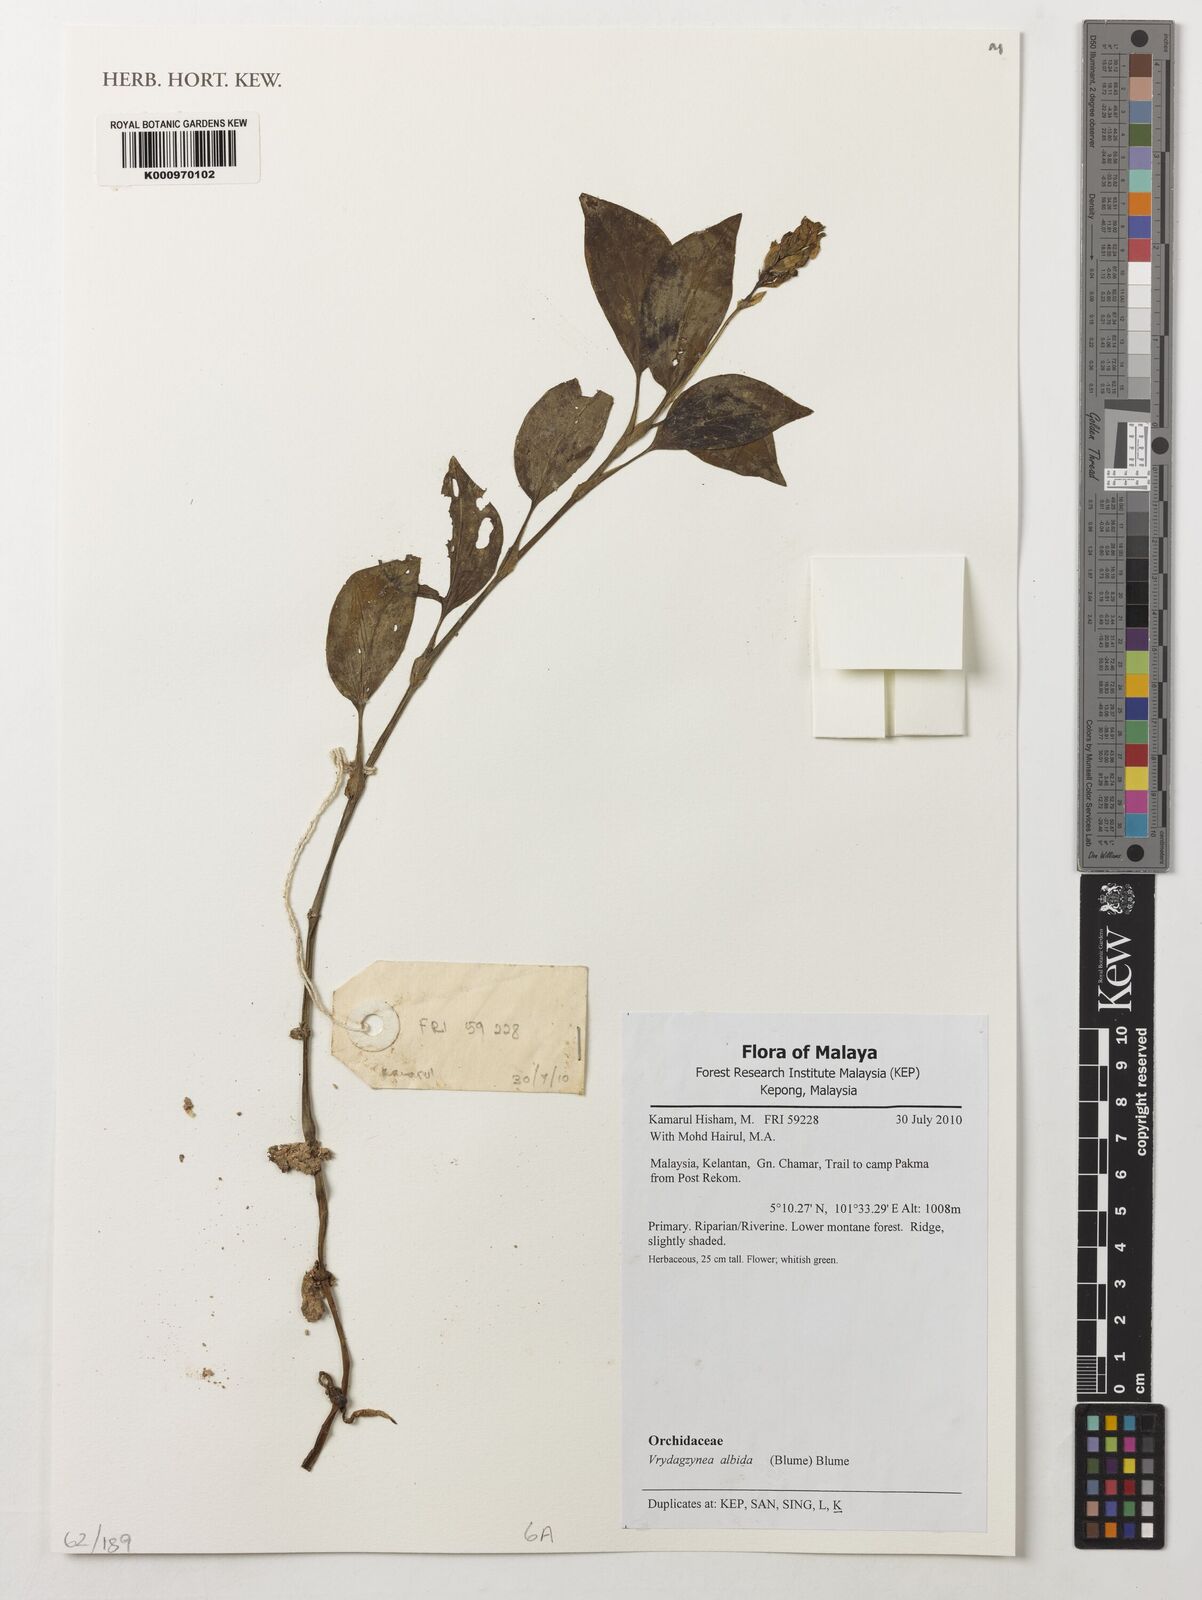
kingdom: Plantae
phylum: Tracheophyta
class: Liliopsida
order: Asparagales
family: Orchidaceae
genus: Vrydagzynea
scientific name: Vrydagzynea albida
